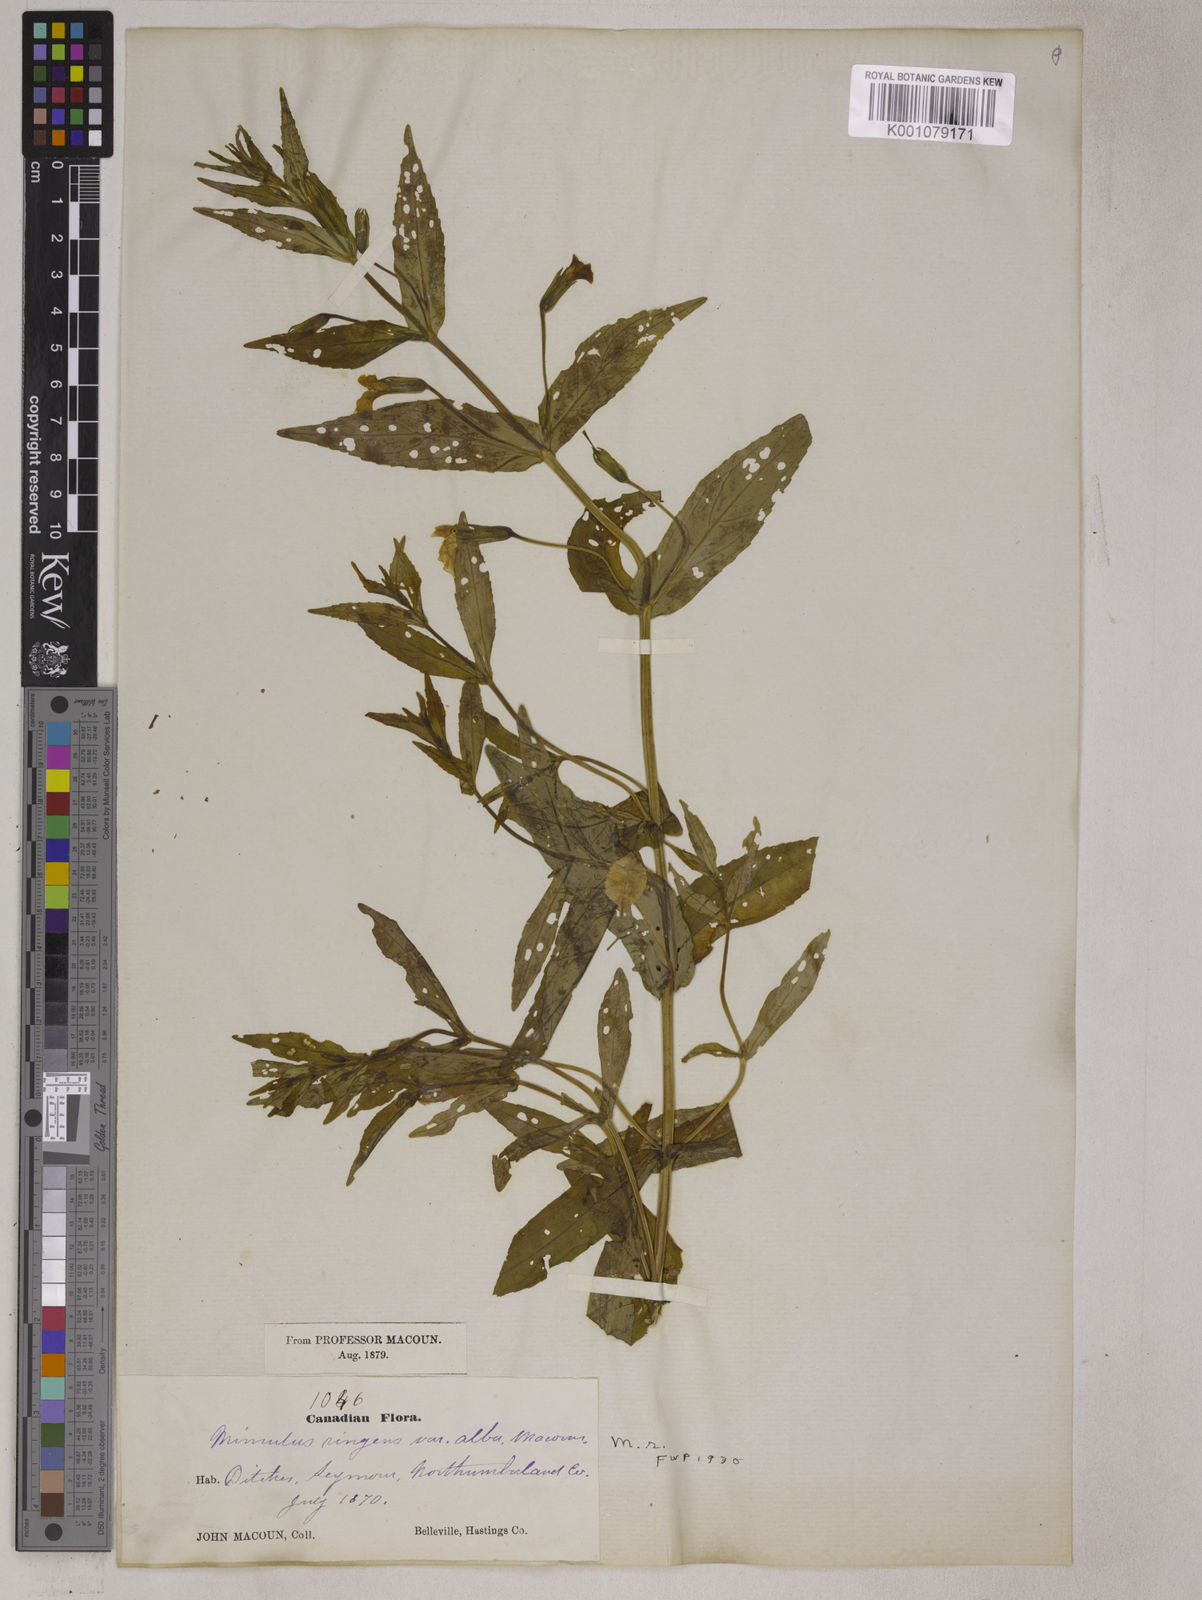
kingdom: Plantae
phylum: Tracheophyta
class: Magnoliopsida
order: Lamiales
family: Phrymaceae
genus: Mimulus
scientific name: Mimulus ringens
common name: Allegheny monkeyflower
